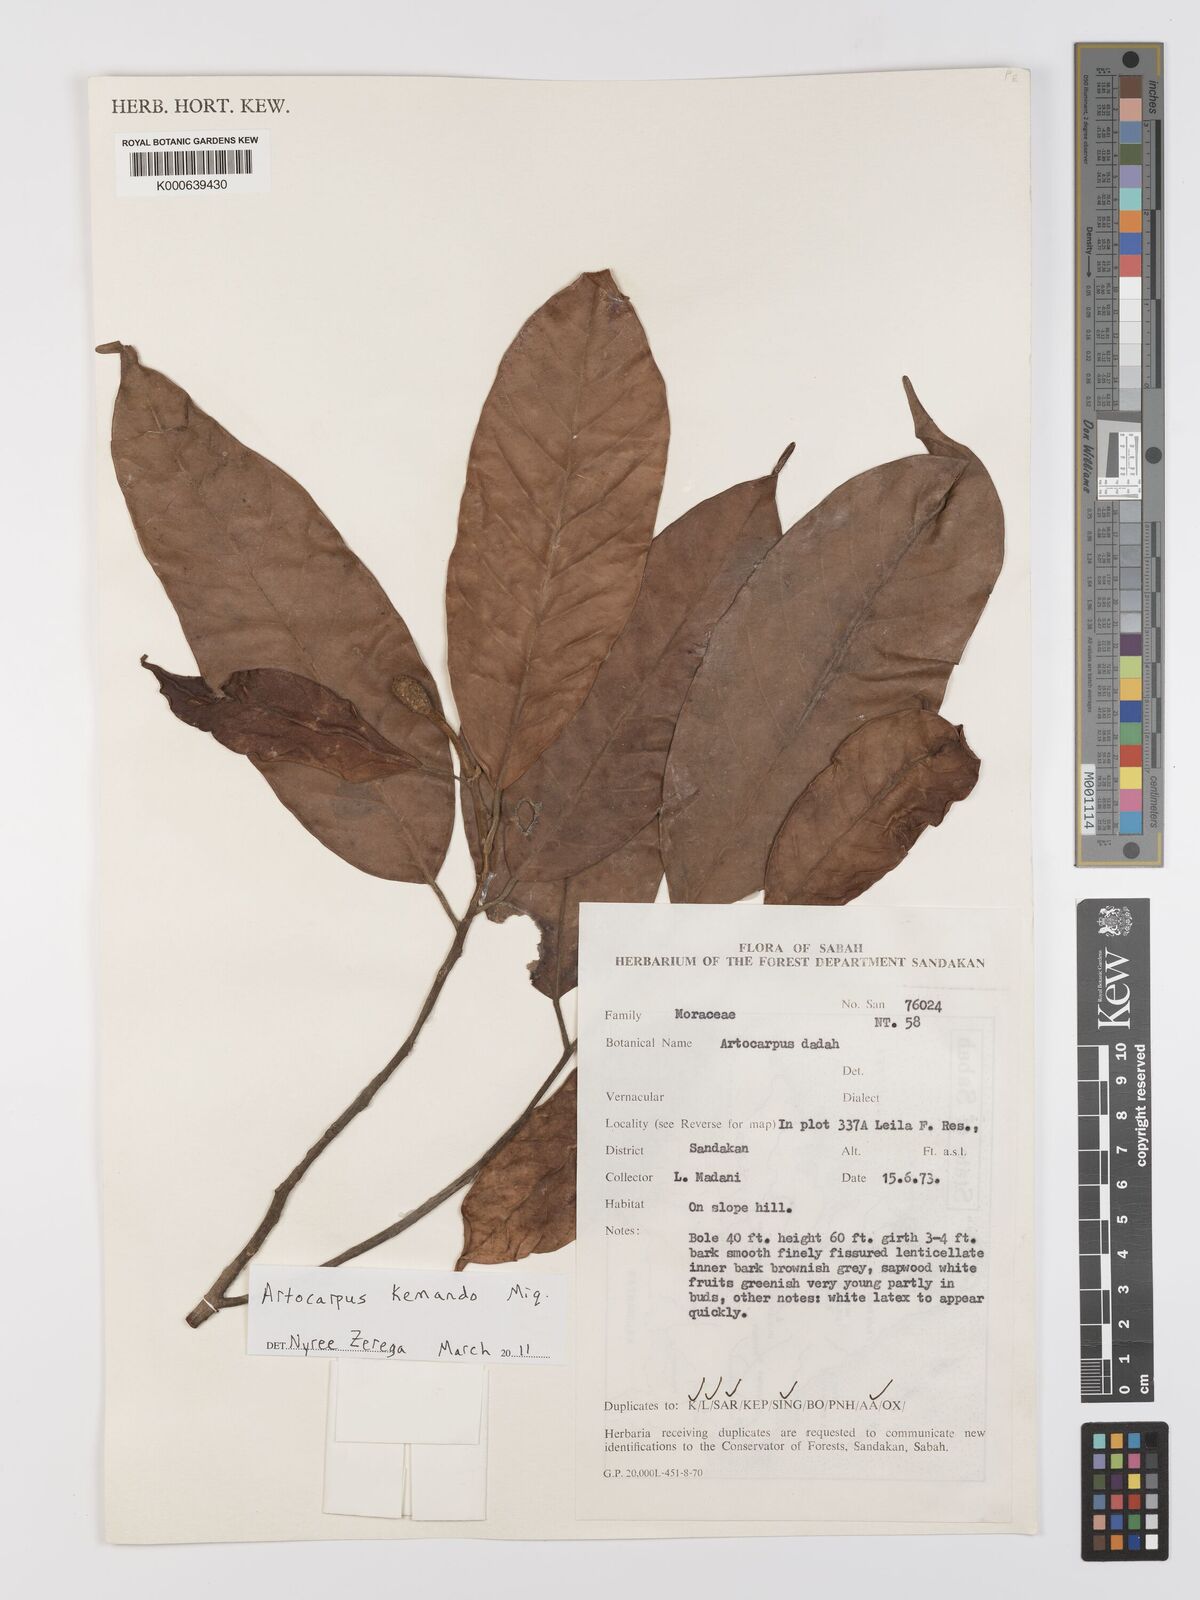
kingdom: Plantae
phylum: Tracheophyta
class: Magnoliopsida
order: Rosales
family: Moraceae
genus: Artocarpus
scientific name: Artocarpus kemando
